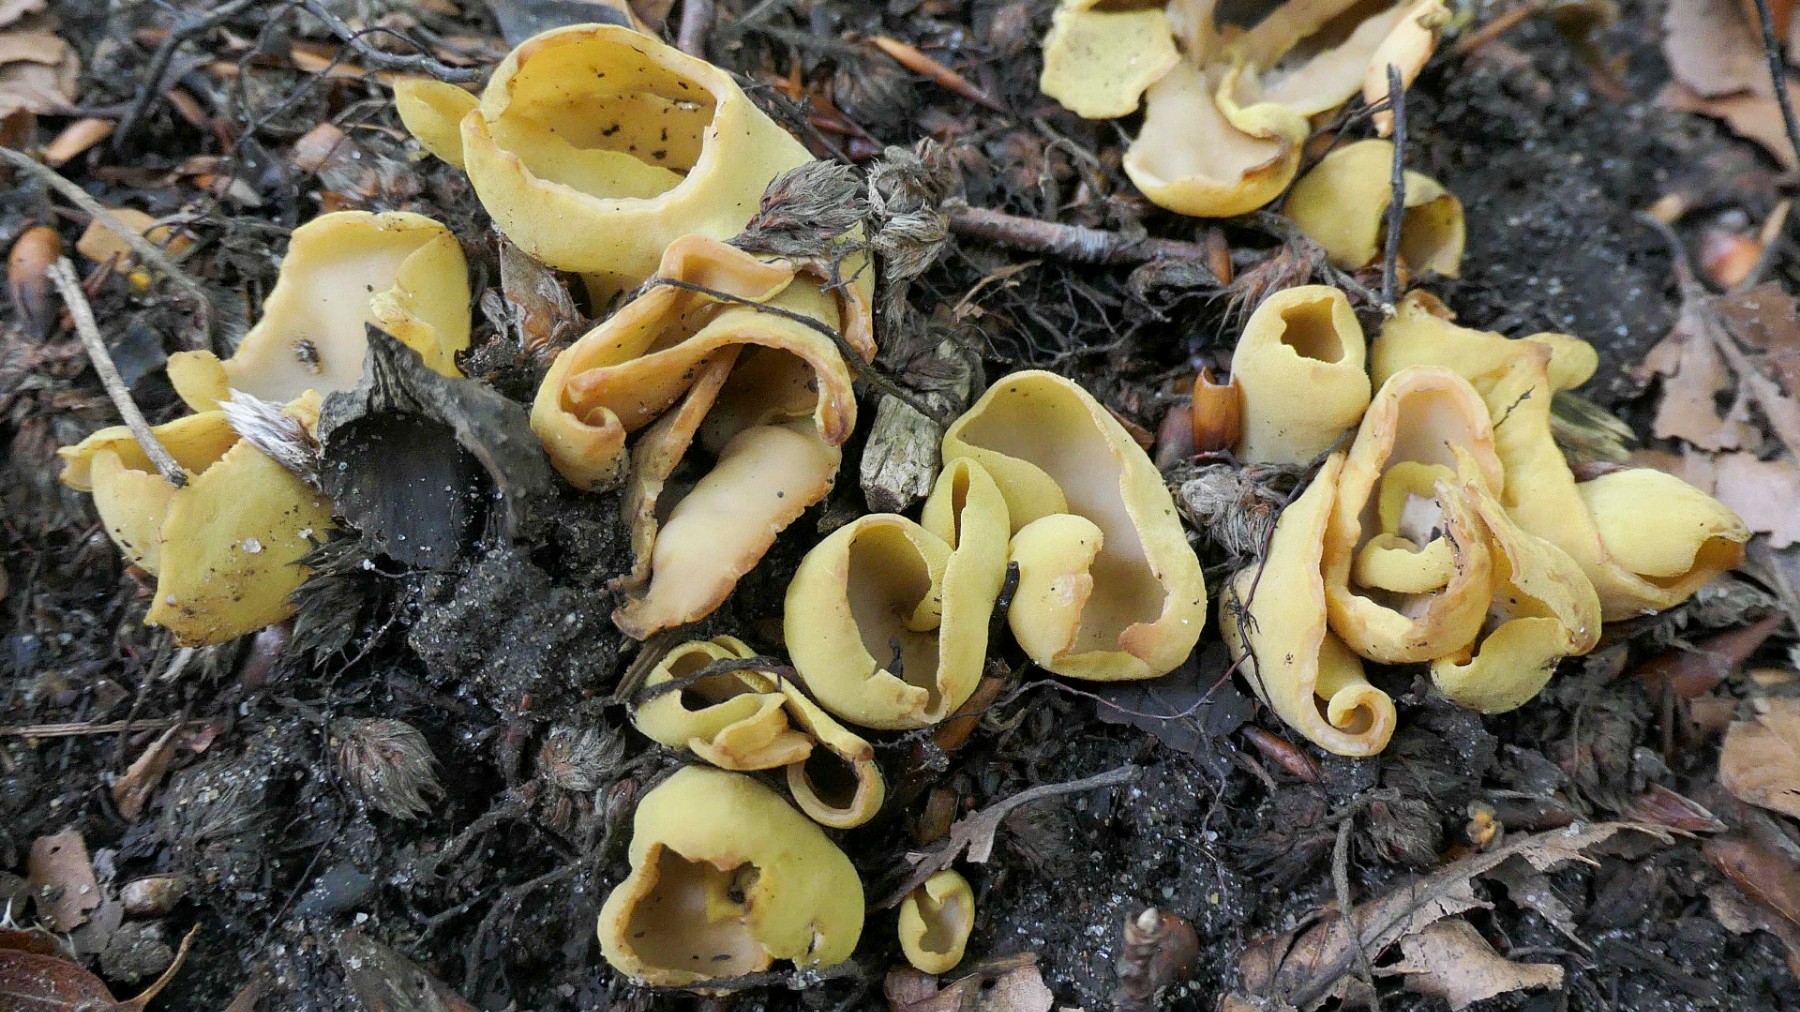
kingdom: Fungi
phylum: Ascomycota
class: Pezizomycetes
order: Pezizales
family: Otideaceae
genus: Otidea
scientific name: Otidea cantharella
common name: citrongul ørebæger
